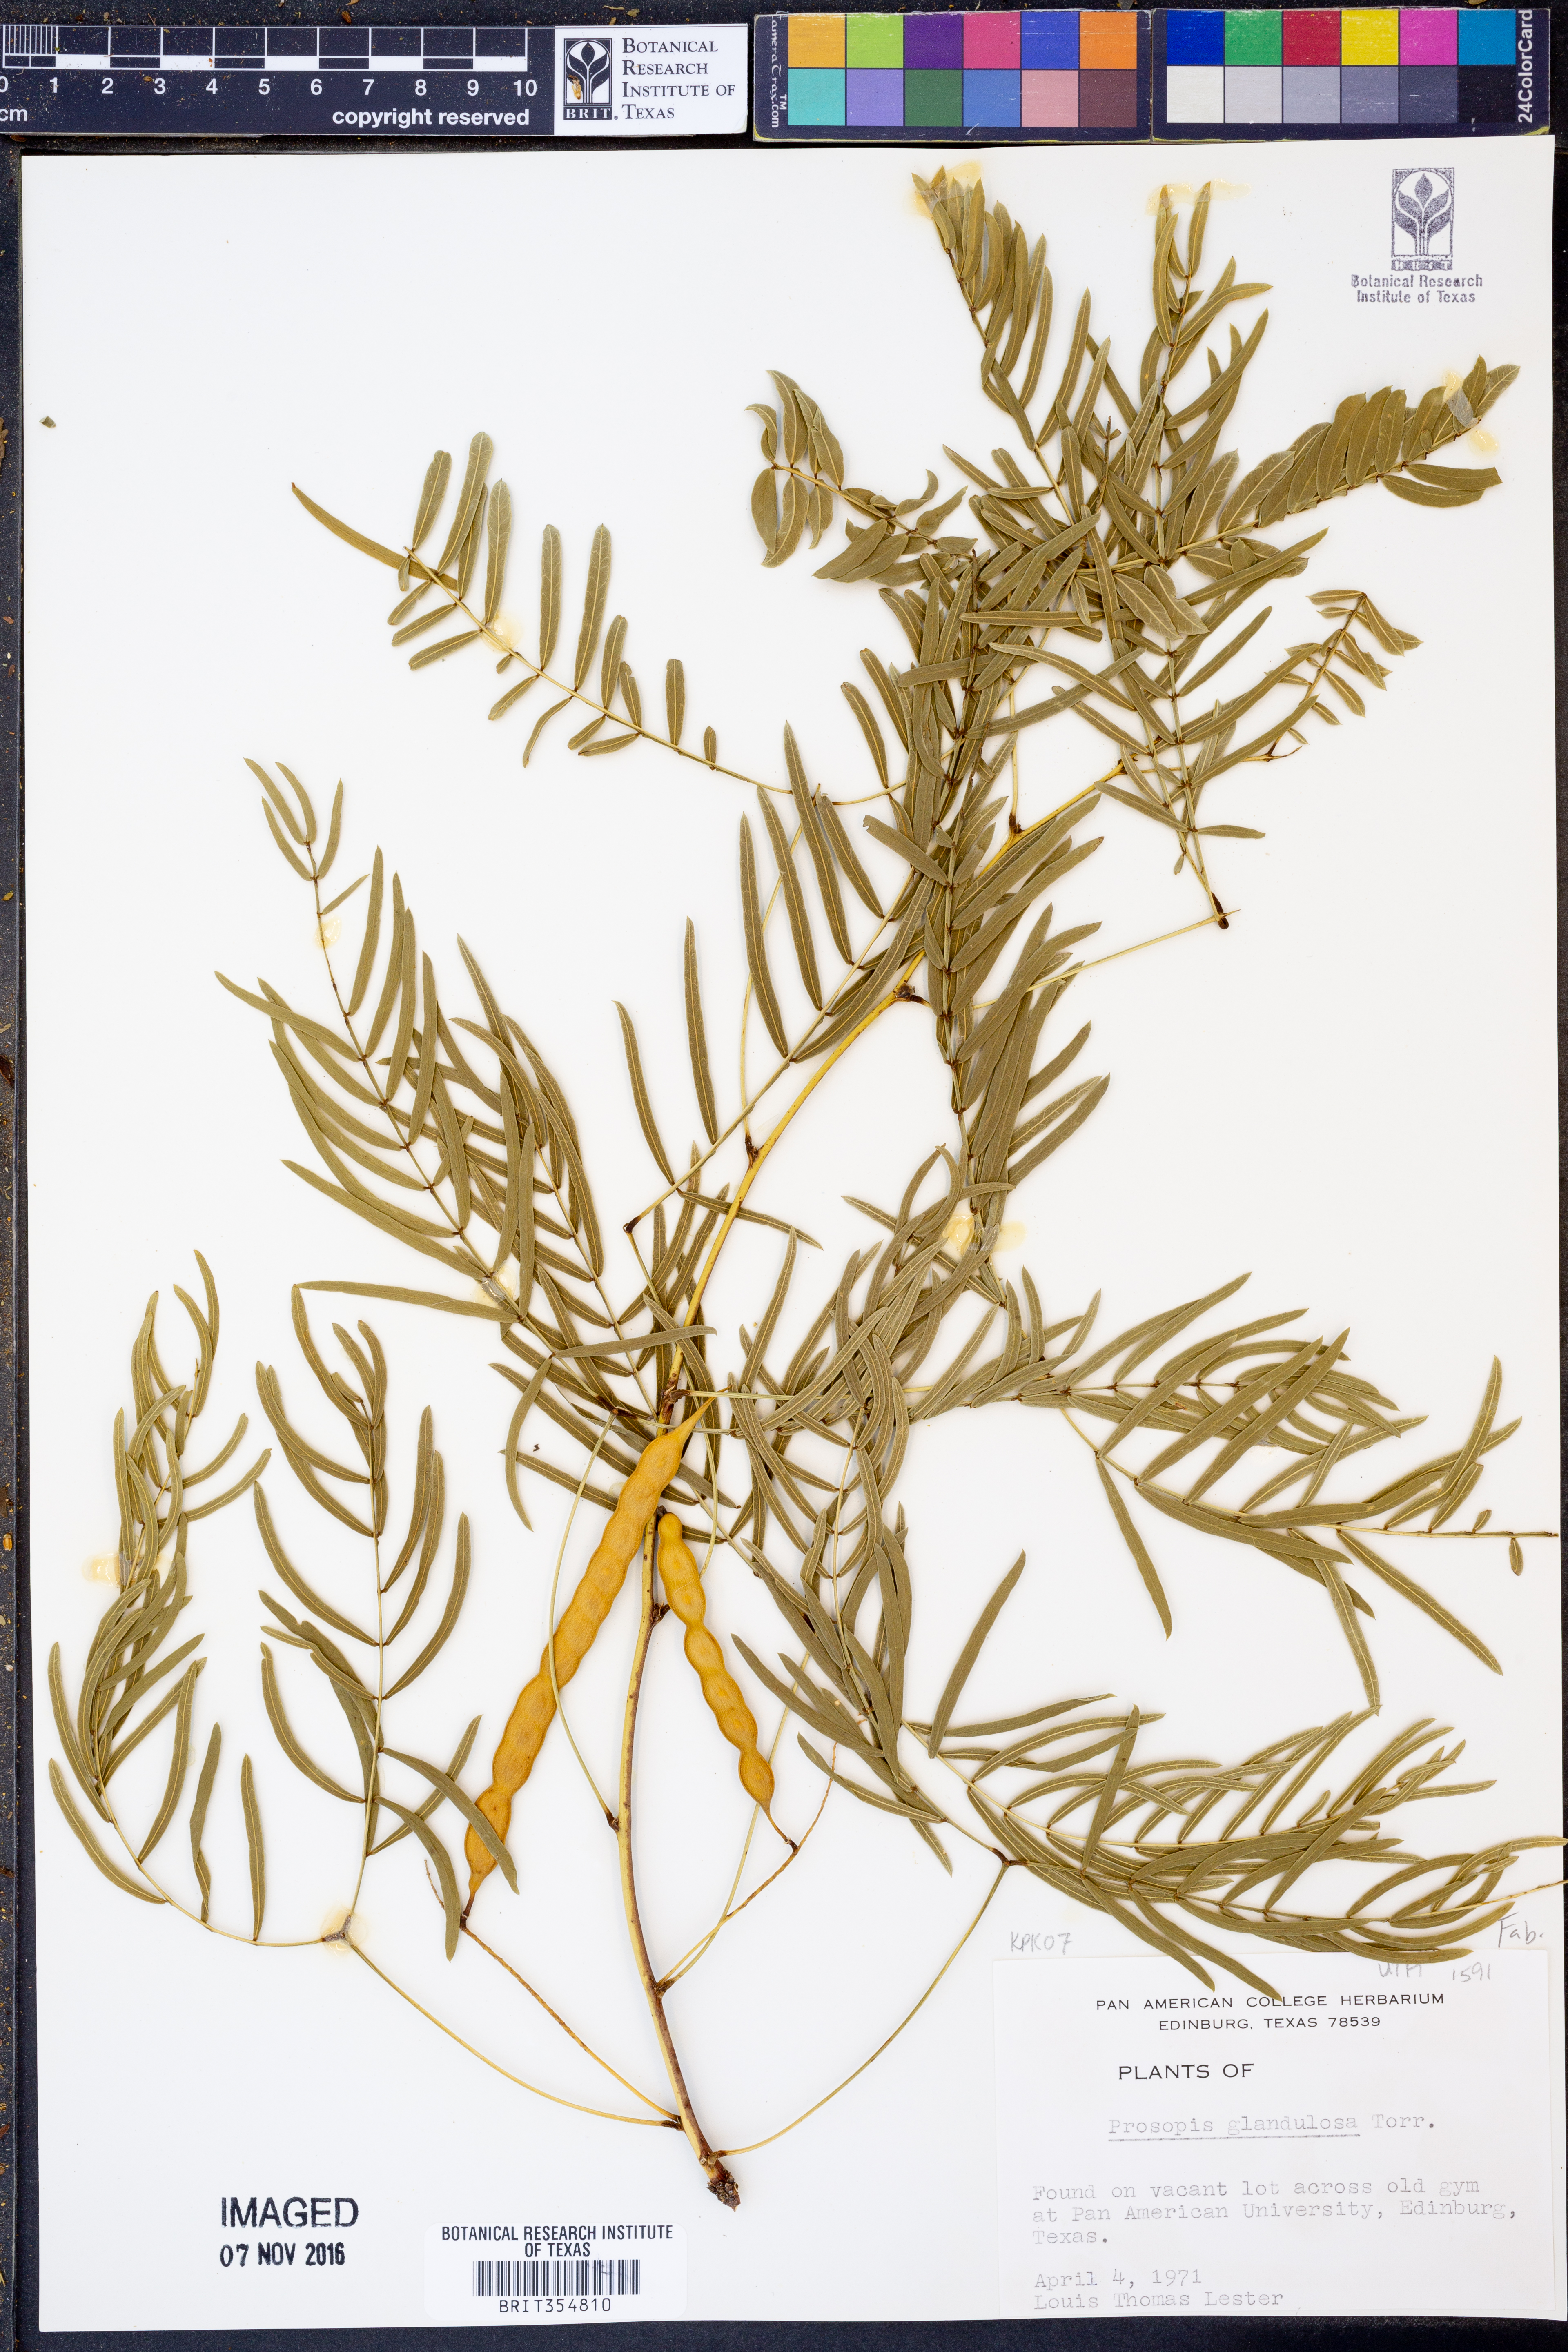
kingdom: Plantae
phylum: Tracheophyta
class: Magnoliopsida
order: Fabales
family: Fabaceae
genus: Prosopis
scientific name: Prosopis glandulosa
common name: Honey mesquite
